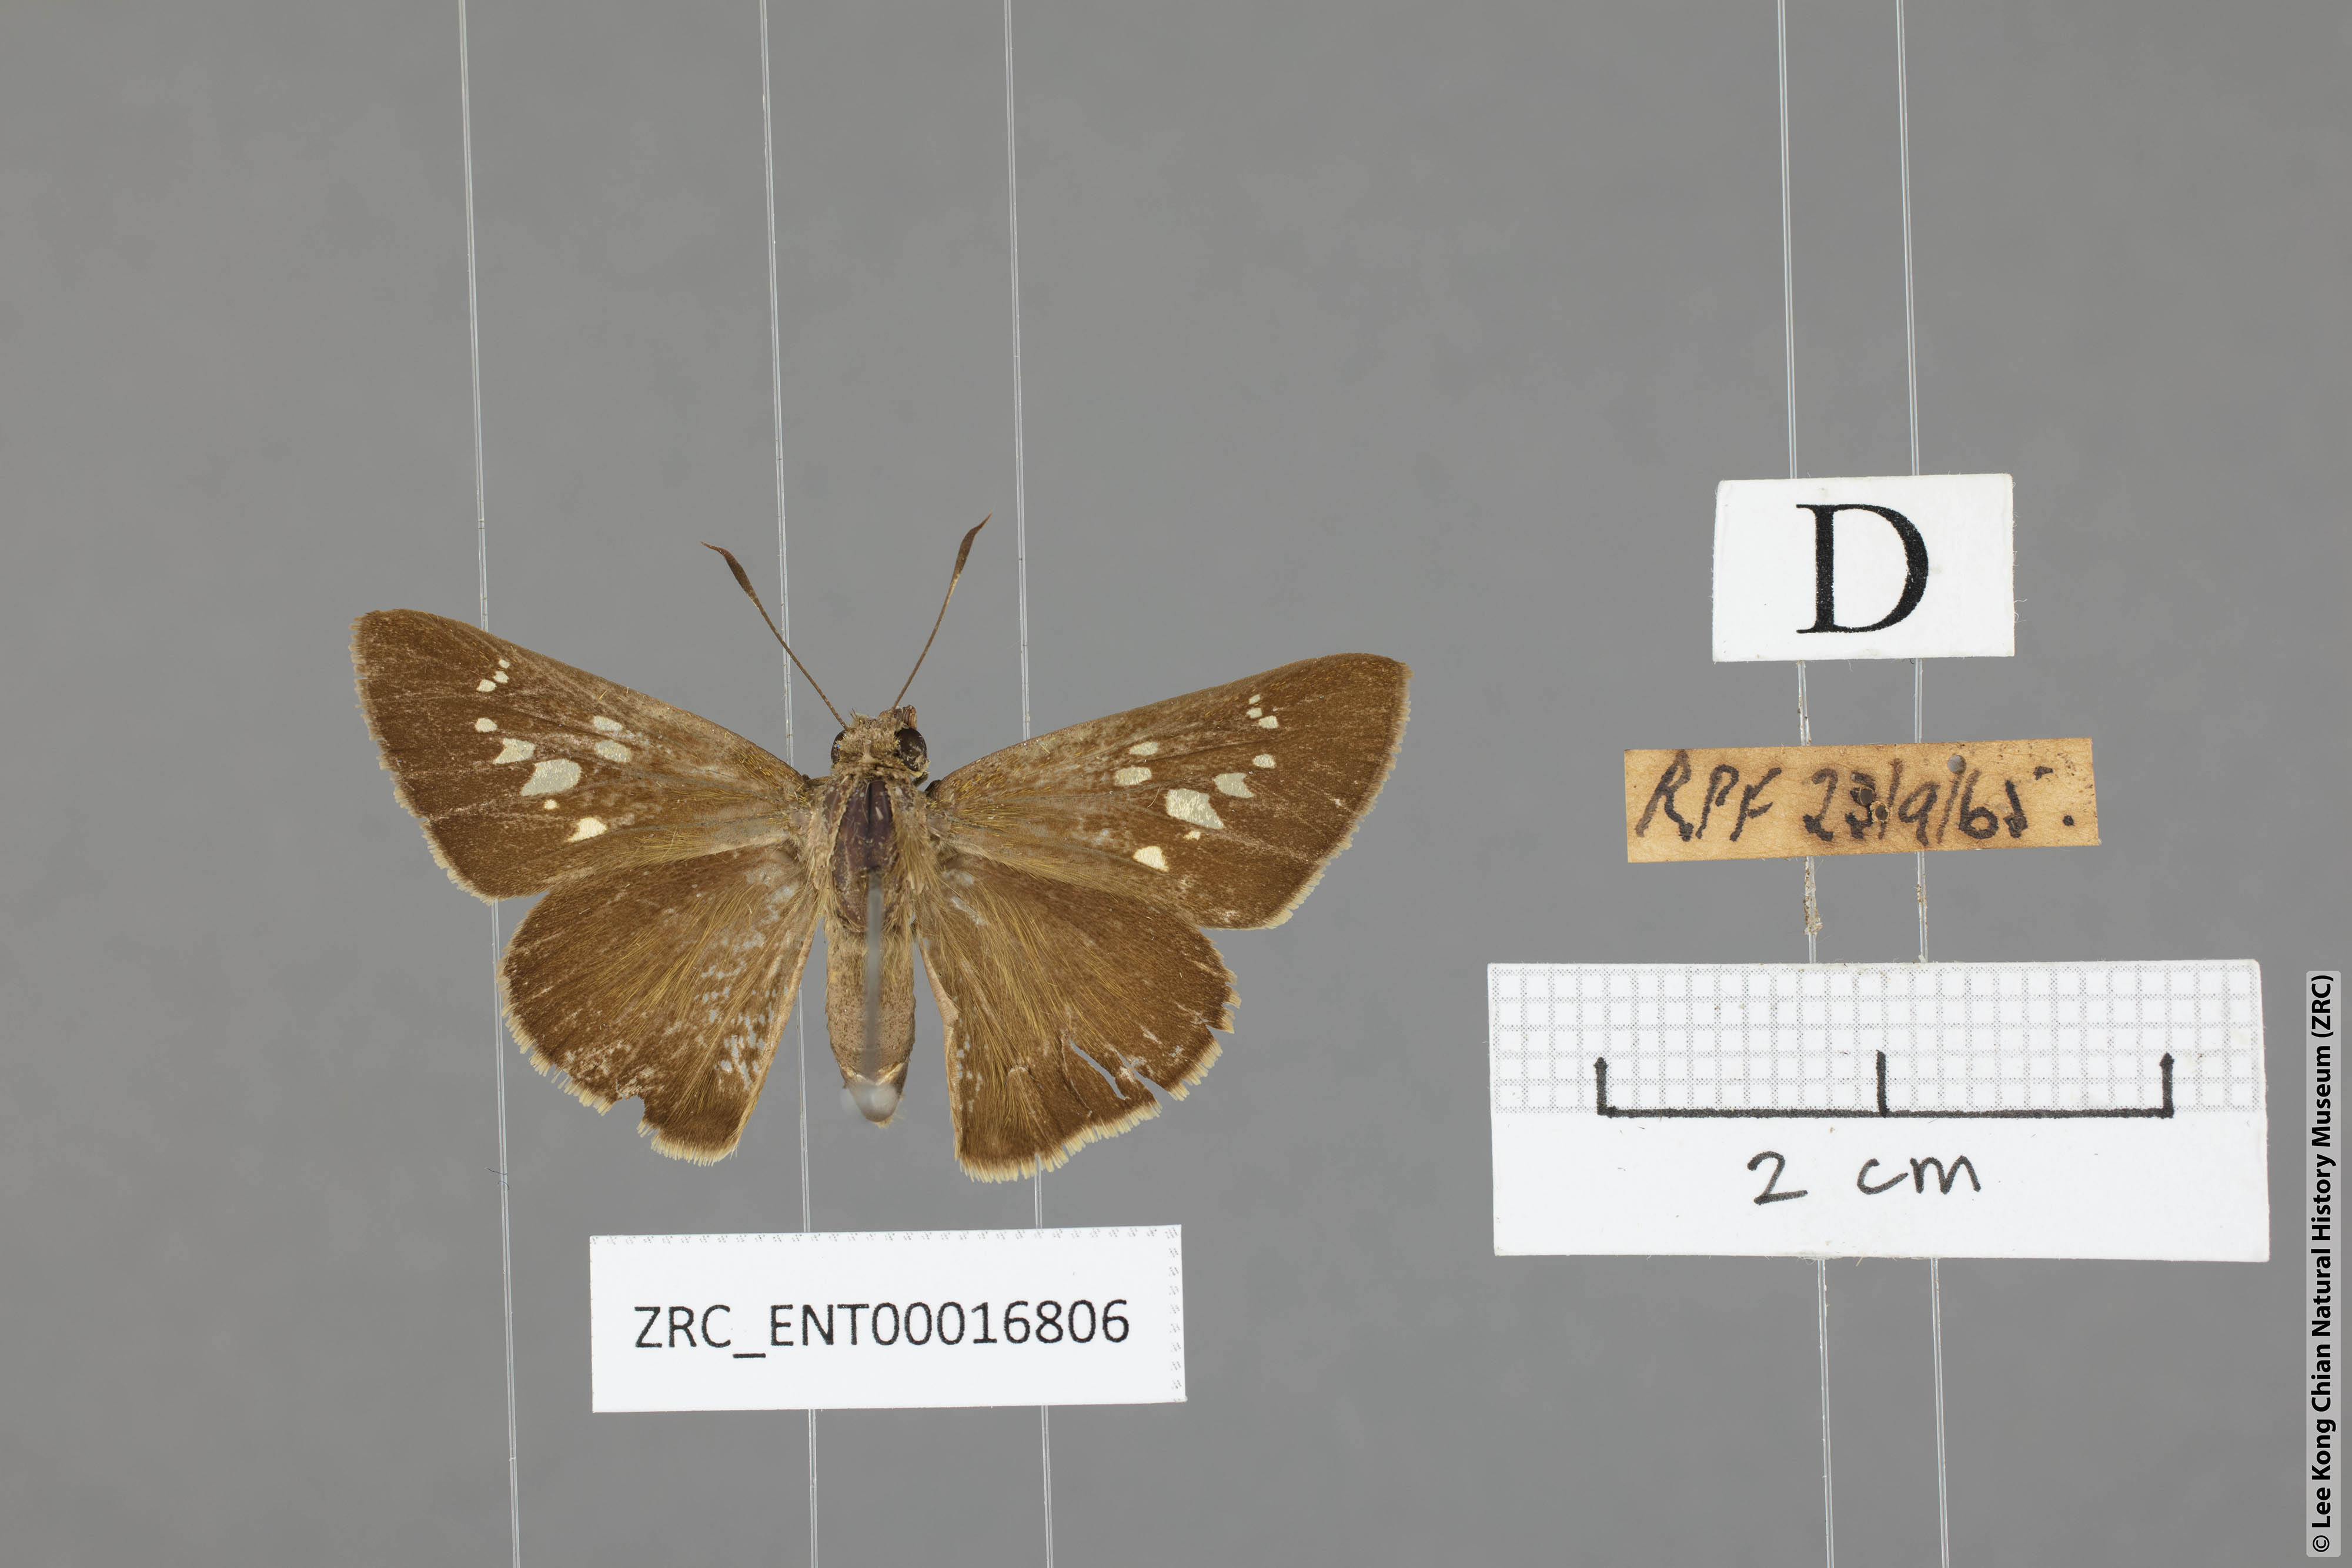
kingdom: Animalia
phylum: Arthropoda
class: Insecta
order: Lepidoptera
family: Hesperiidae
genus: Caltoris
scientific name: Caltoris bromus
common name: Colon swift
